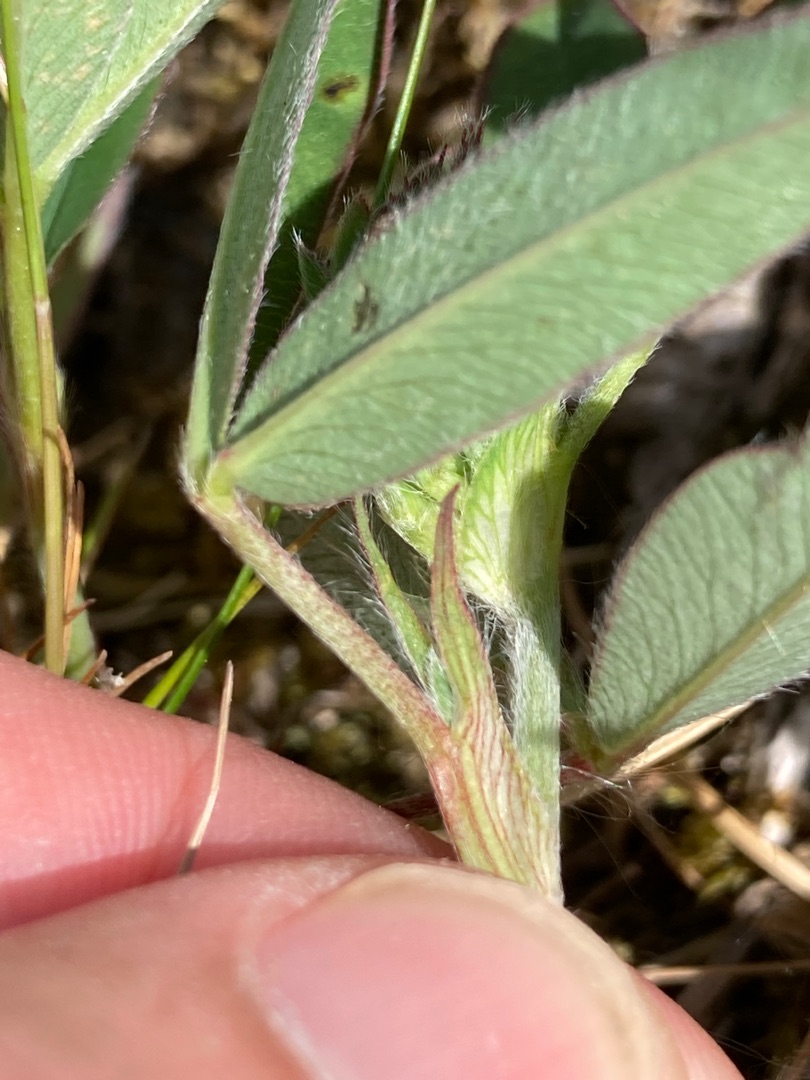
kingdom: Plantae
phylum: Tracheophyta
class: Magnoliopsida
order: Fabales
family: Fabaceae
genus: Trifolium
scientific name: Trifolium medium
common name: Bugtet kløver
